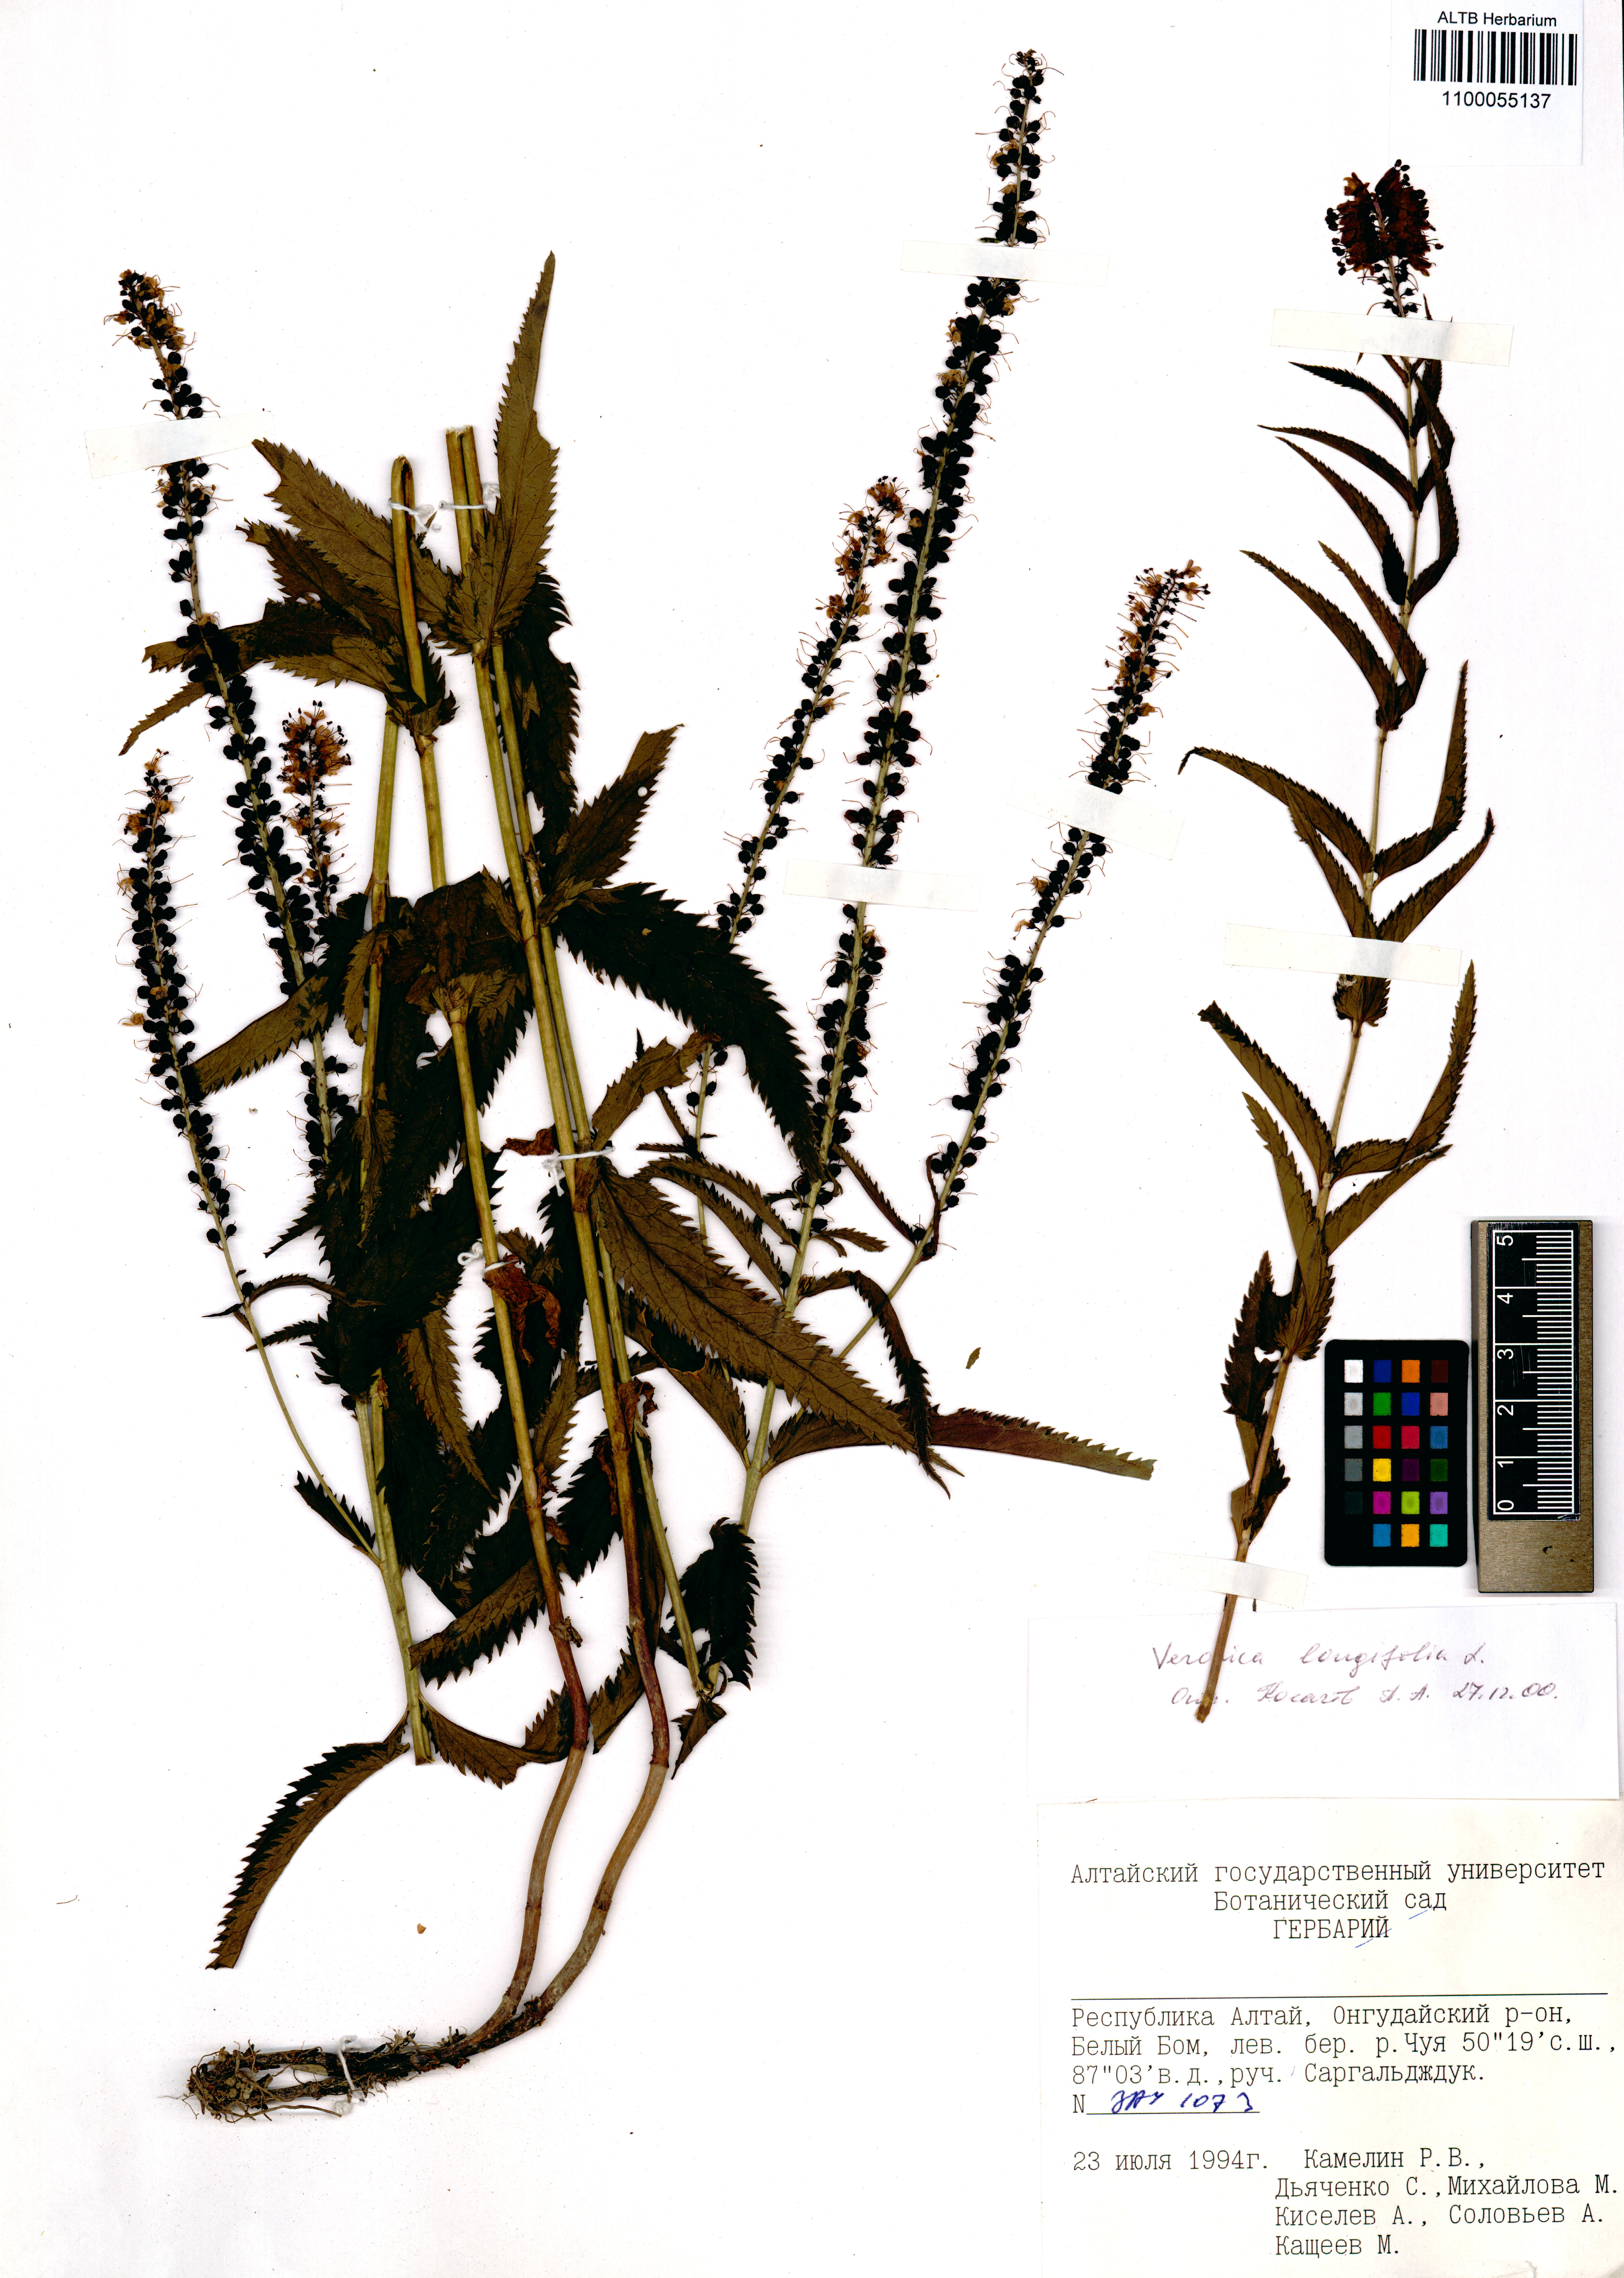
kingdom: Plantae
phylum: Tracheophyta
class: Magnoliopsida
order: Lamiales
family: Plantaginaceae
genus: Veronica
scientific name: Veronica longifolia
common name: Garden speedwell
